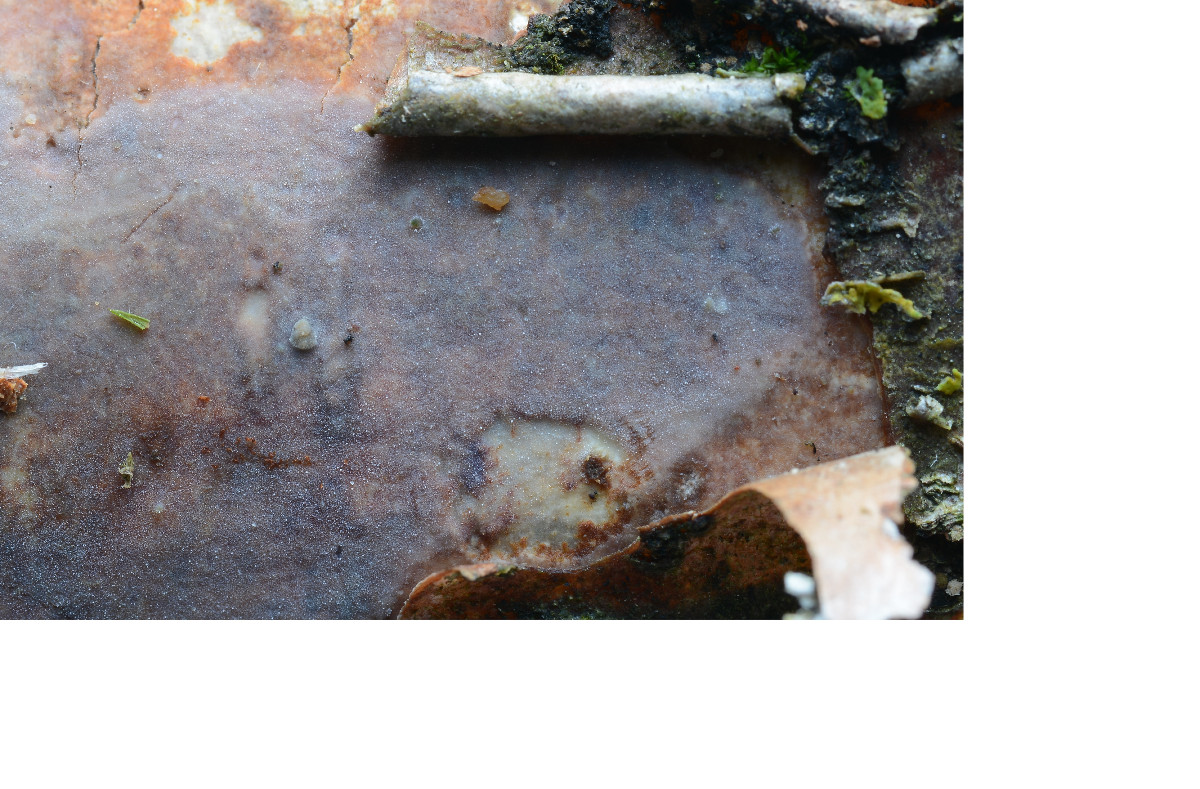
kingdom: Fungi
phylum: Basidiomycota
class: Agaricomycetes
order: Corticiales
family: Vuilleminiaceae
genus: Vuilleminia
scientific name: Vuilleminia coryli
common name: hassel-barksprænger
